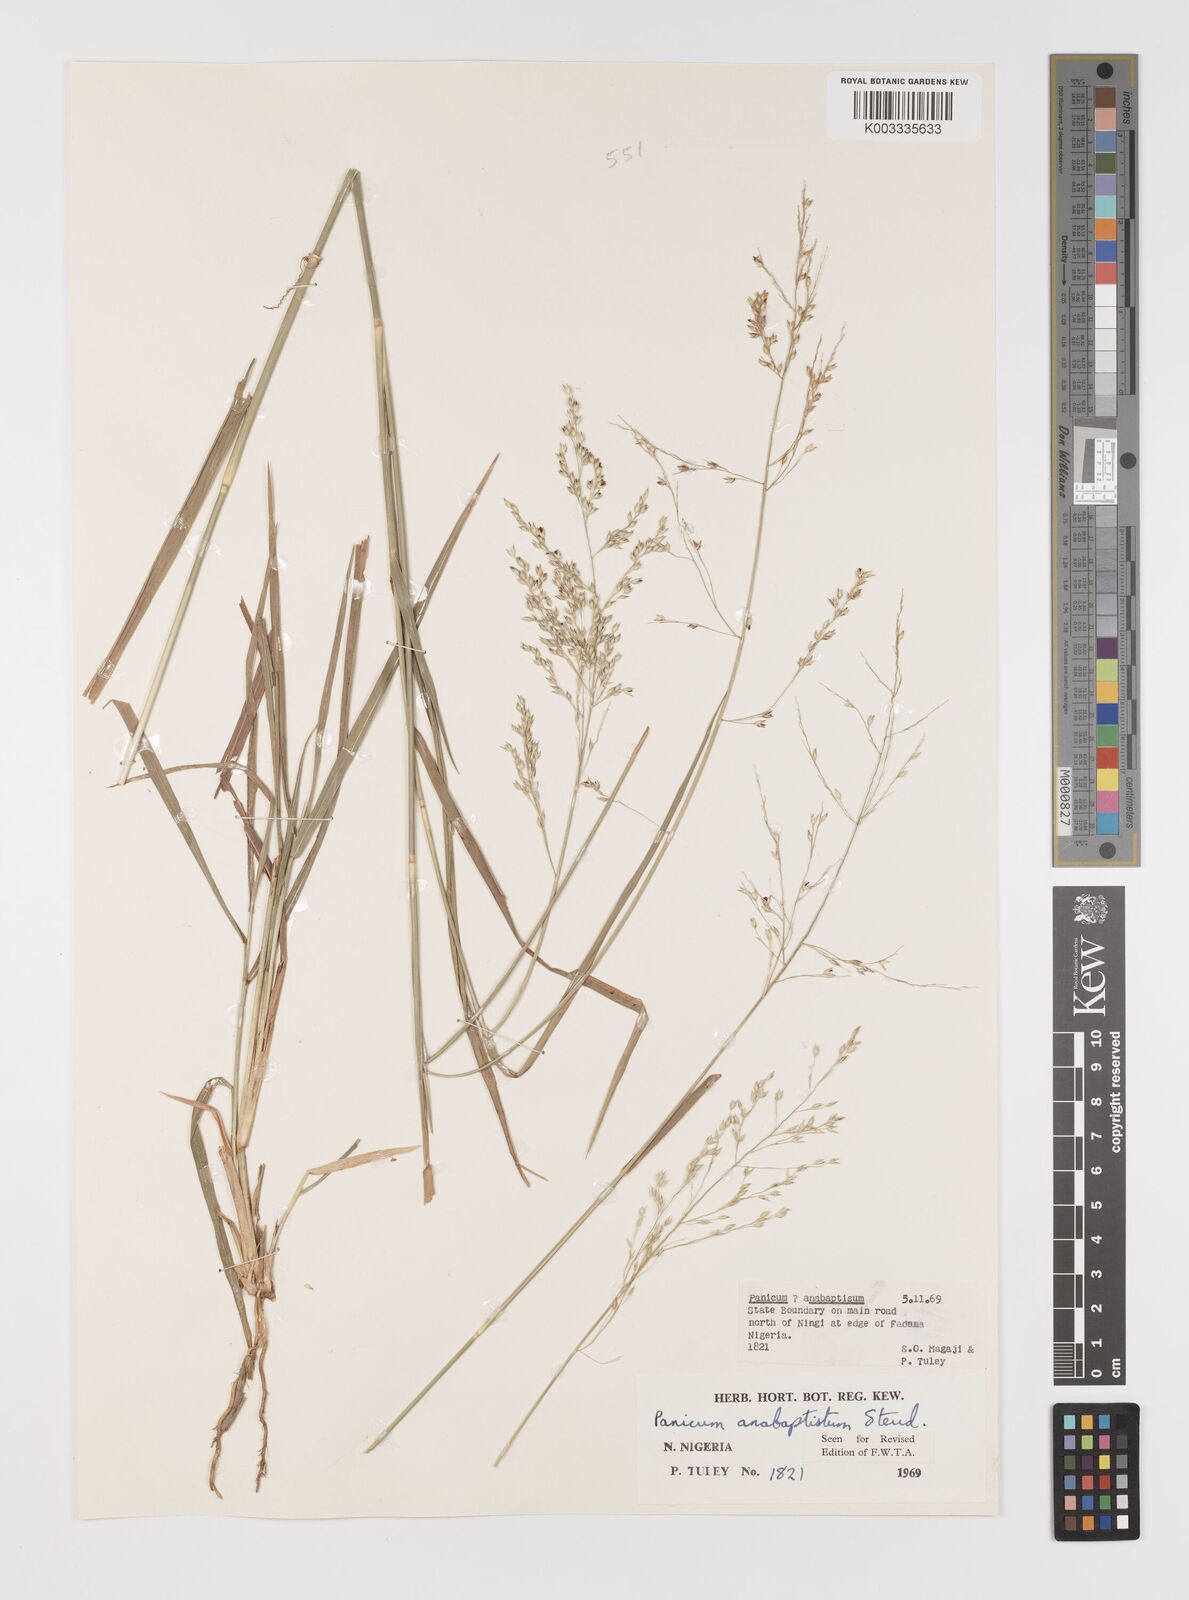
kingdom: Plantae
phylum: Tracheophyta
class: Liliopsida
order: Poales
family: Poaceae
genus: Panicum
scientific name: Panicum anabaptistum
